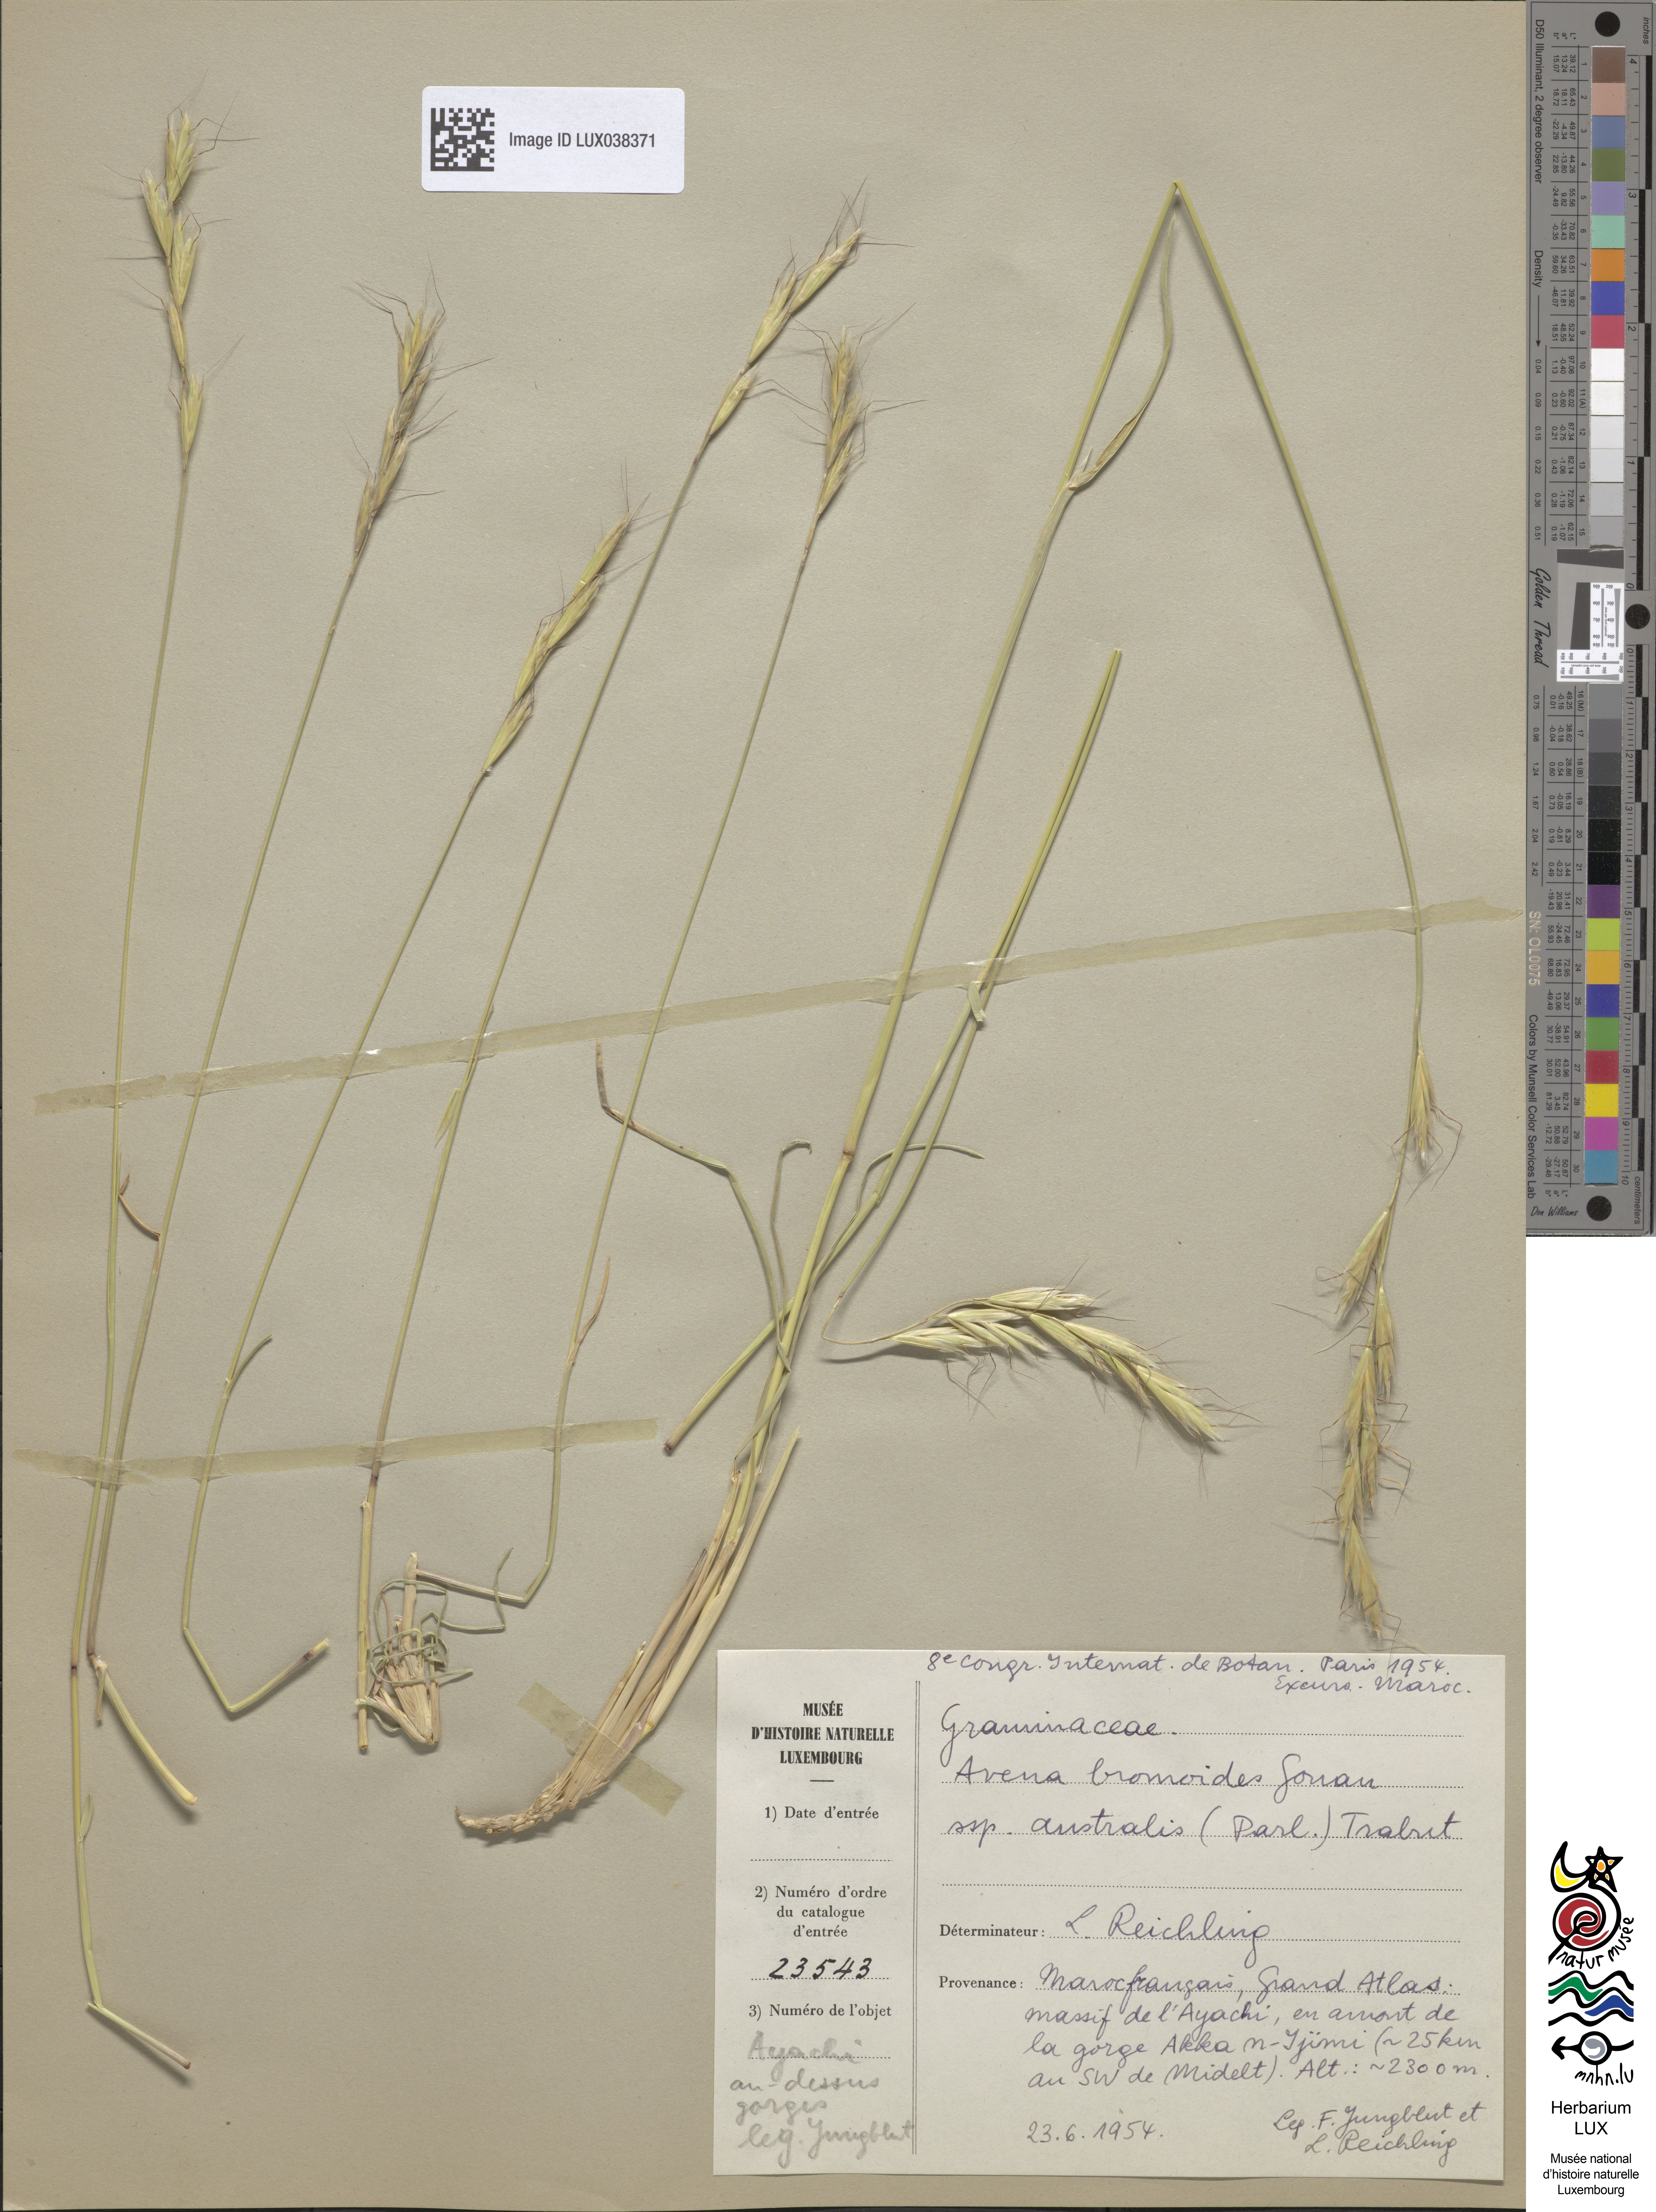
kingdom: Plantae
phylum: Tracheophyta
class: Liliopsida
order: Poales
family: Poaceae
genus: Helictochloa
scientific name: Helictochloa cincinnata
